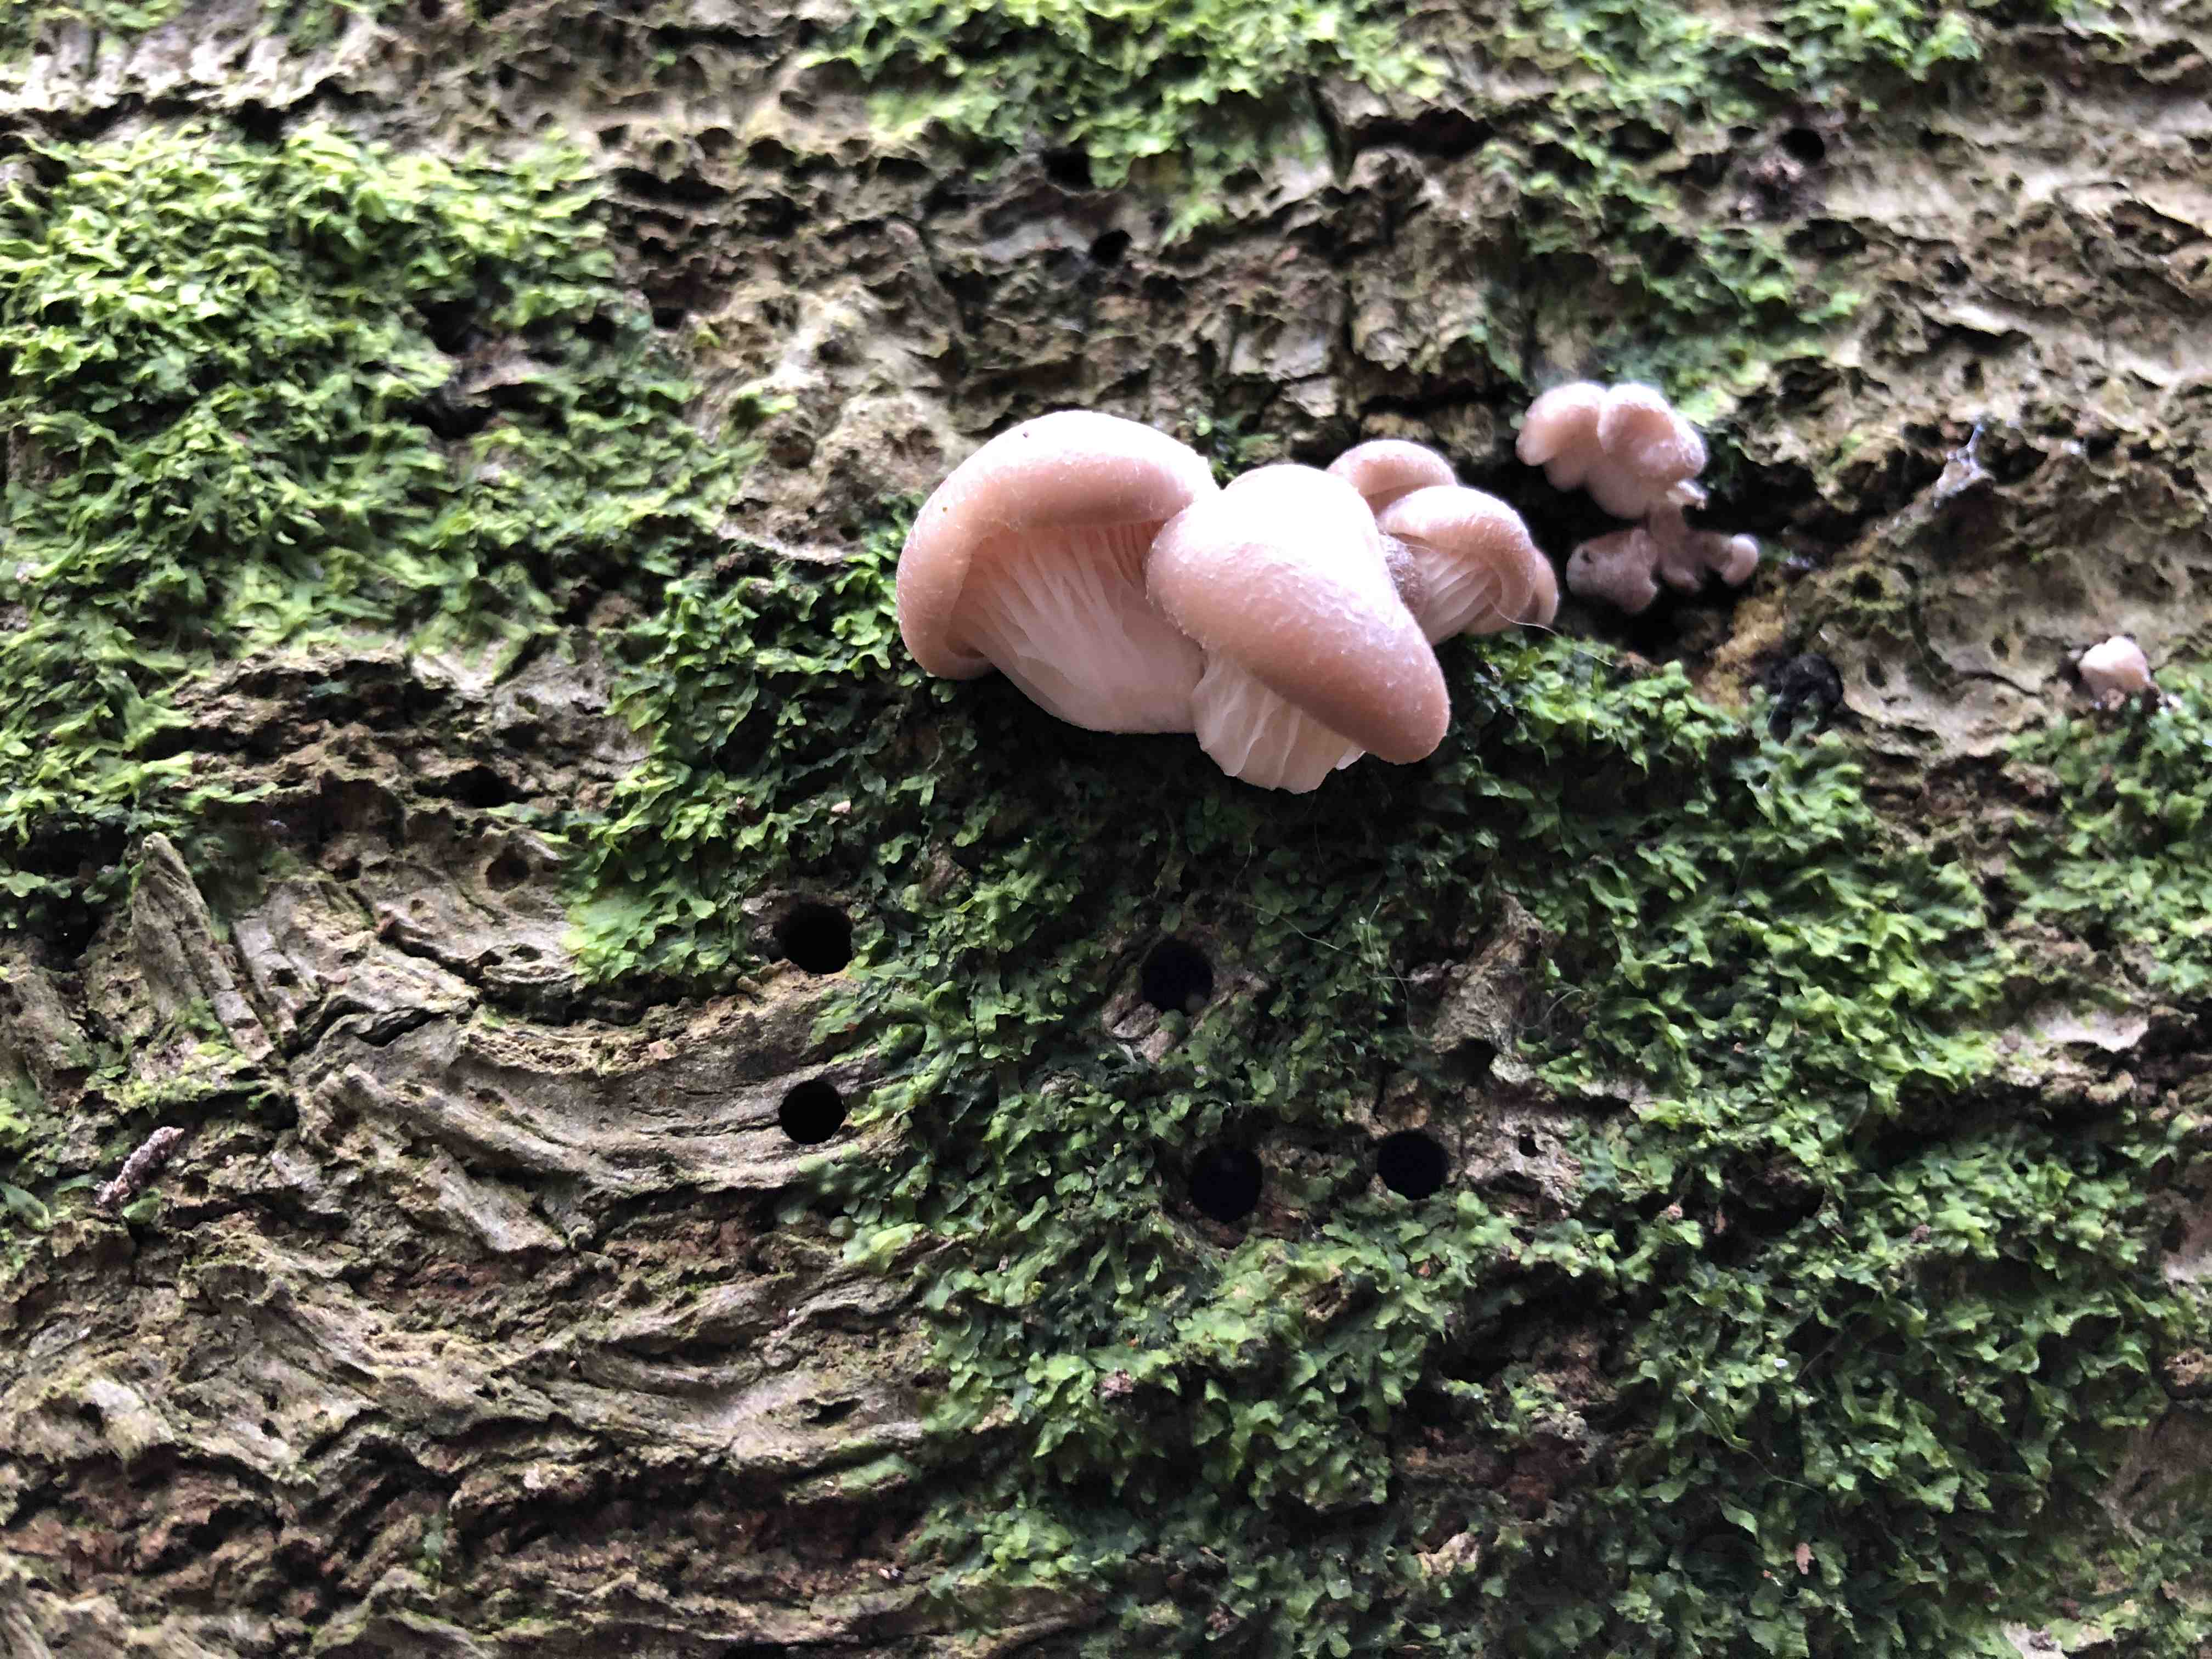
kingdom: Fungi
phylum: Basidiomycota
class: Agaricomycetes
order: Agaricales
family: Pleurotaceae
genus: Pleurotus
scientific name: Pleurotus ostreatus
